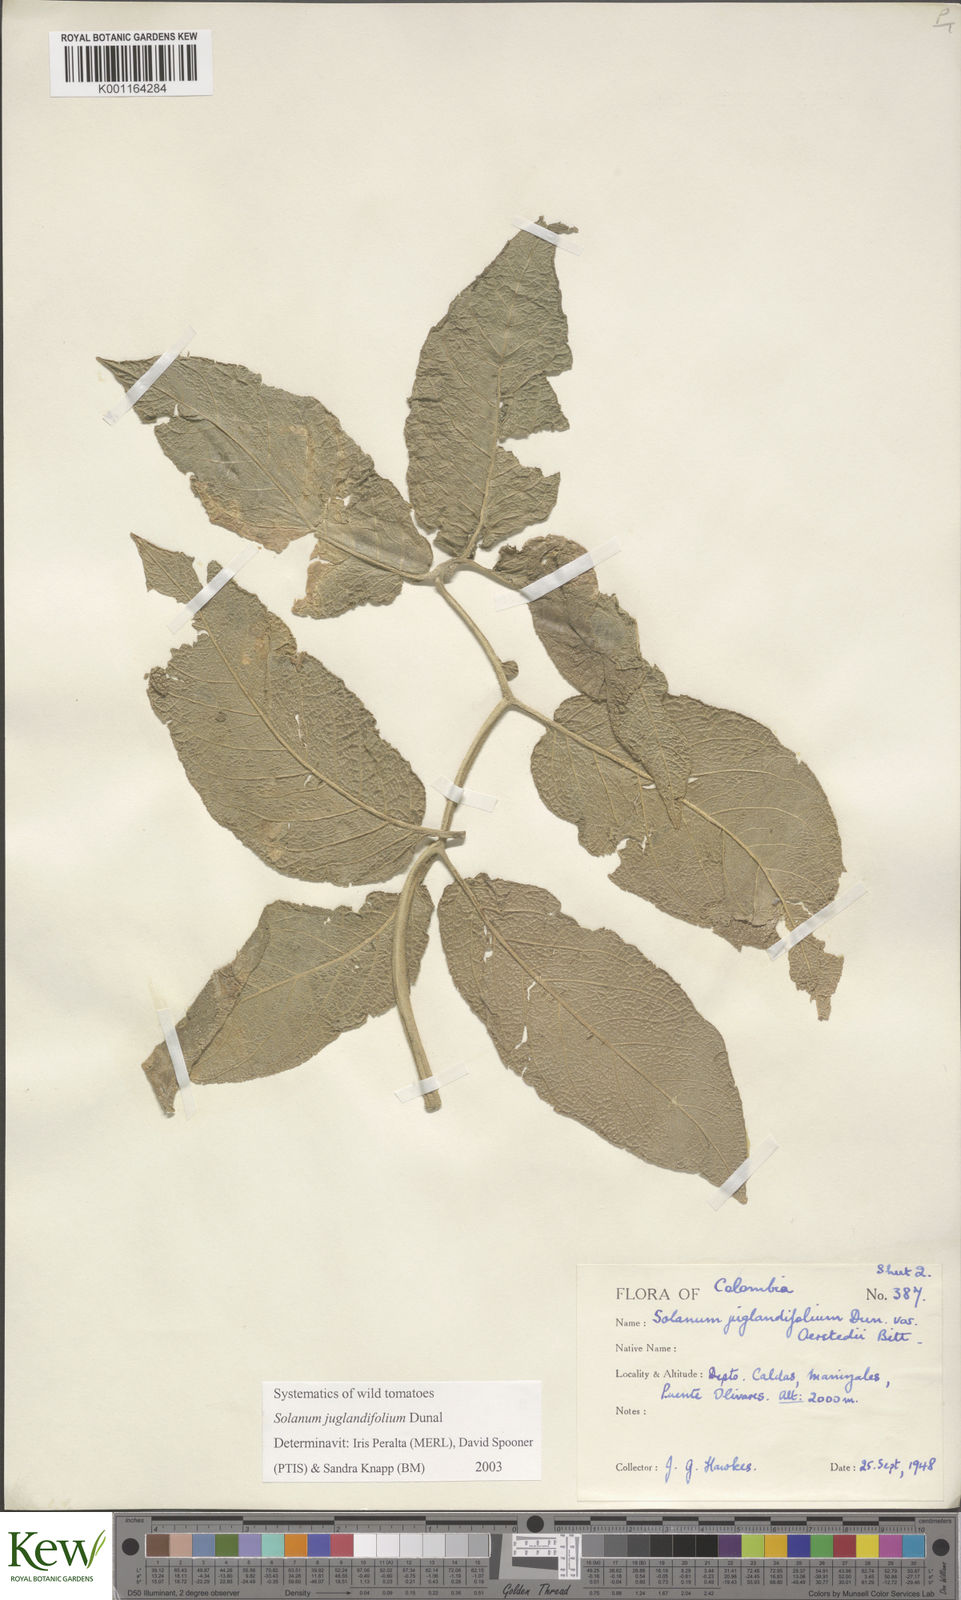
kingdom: Plantae
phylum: Tracheophyta
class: Magnoliopsida
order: Solanales
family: Solanaceae
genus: Solanum
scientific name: Solanum juglandifolium
